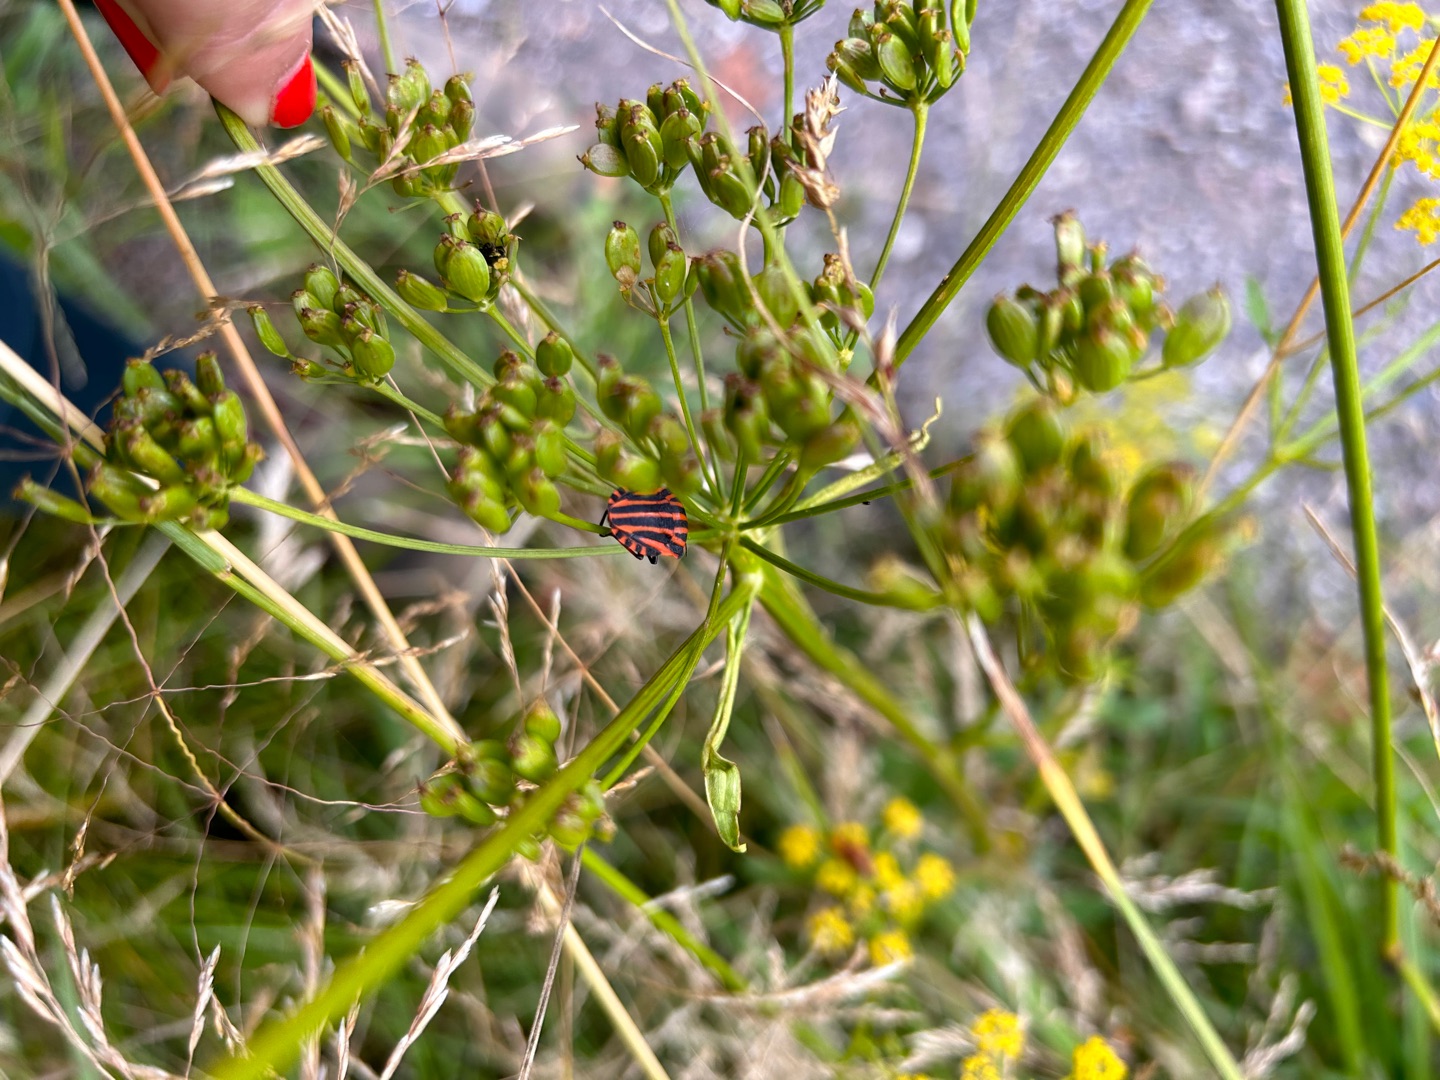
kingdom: Animalia
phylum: Arthropoda
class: Insecta
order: Hemiptera
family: Pentatomidae
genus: Graphosoma
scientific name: Graphosoma italicum
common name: Stribetæge
